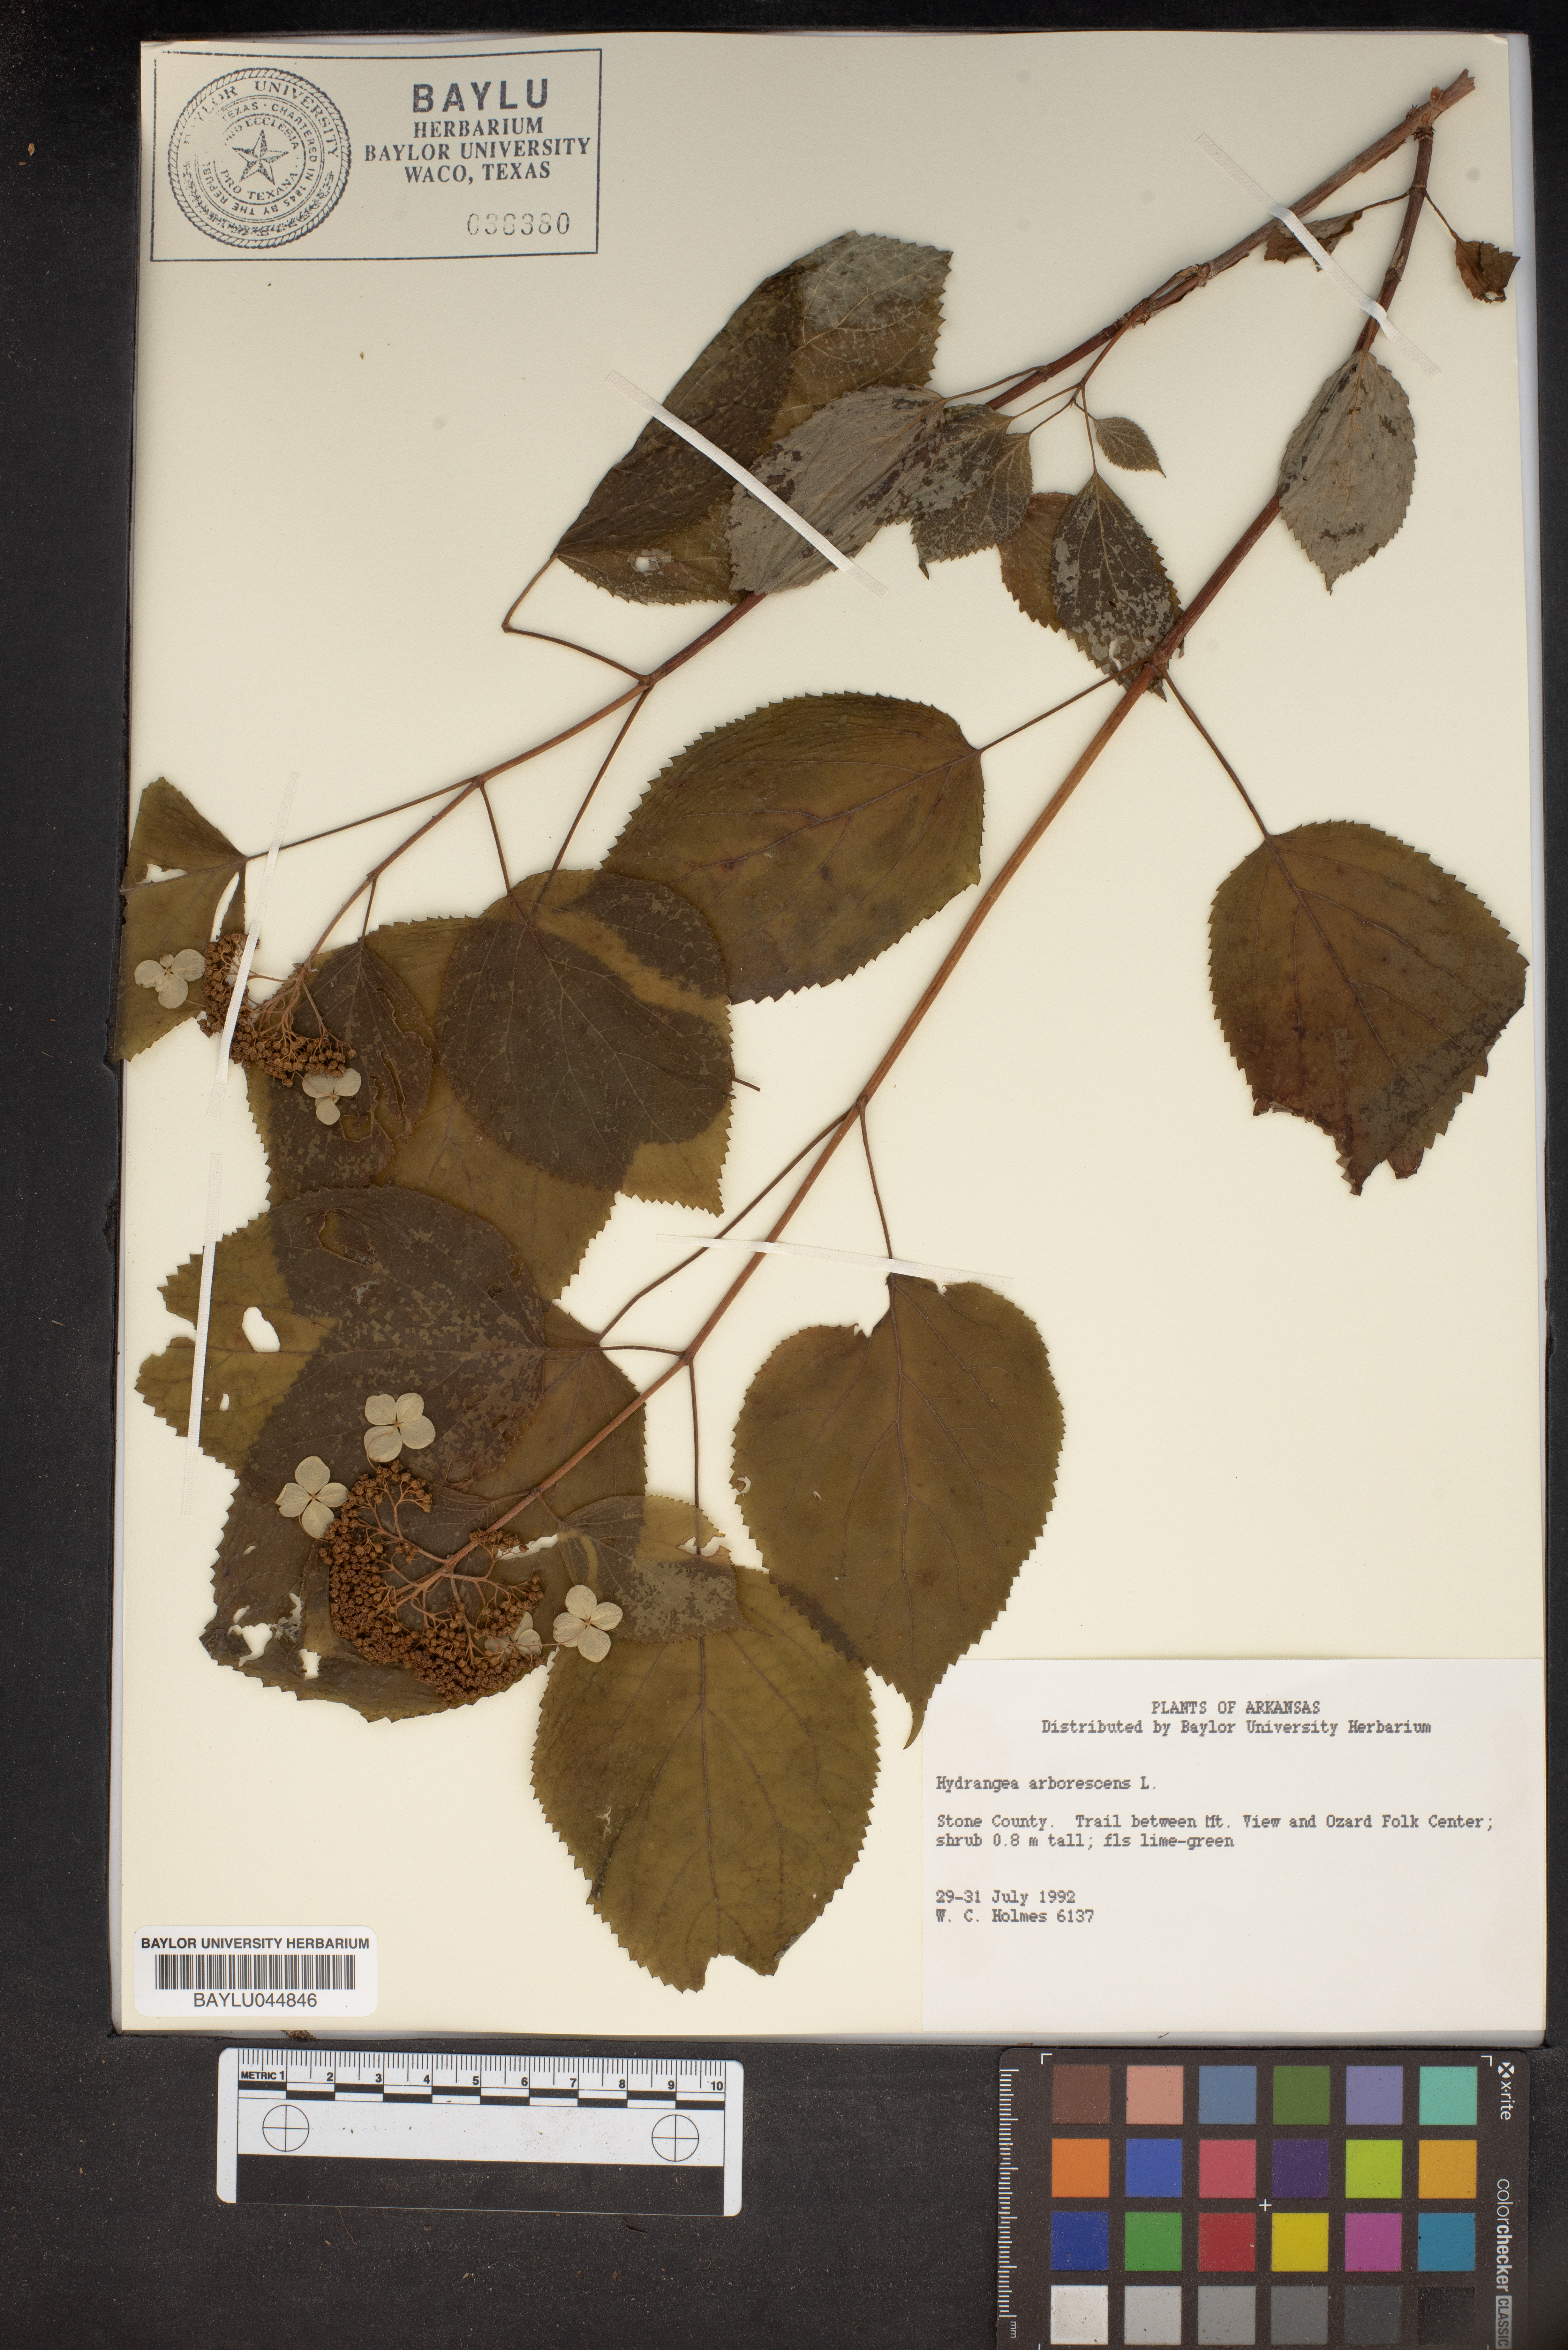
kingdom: Plantae
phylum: Tracheophyta
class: Magnoliopsida
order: Cornales
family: Hydrangeaceae
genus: Hydrangea
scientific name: Hydrangea arborescens
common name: Sevenbark
